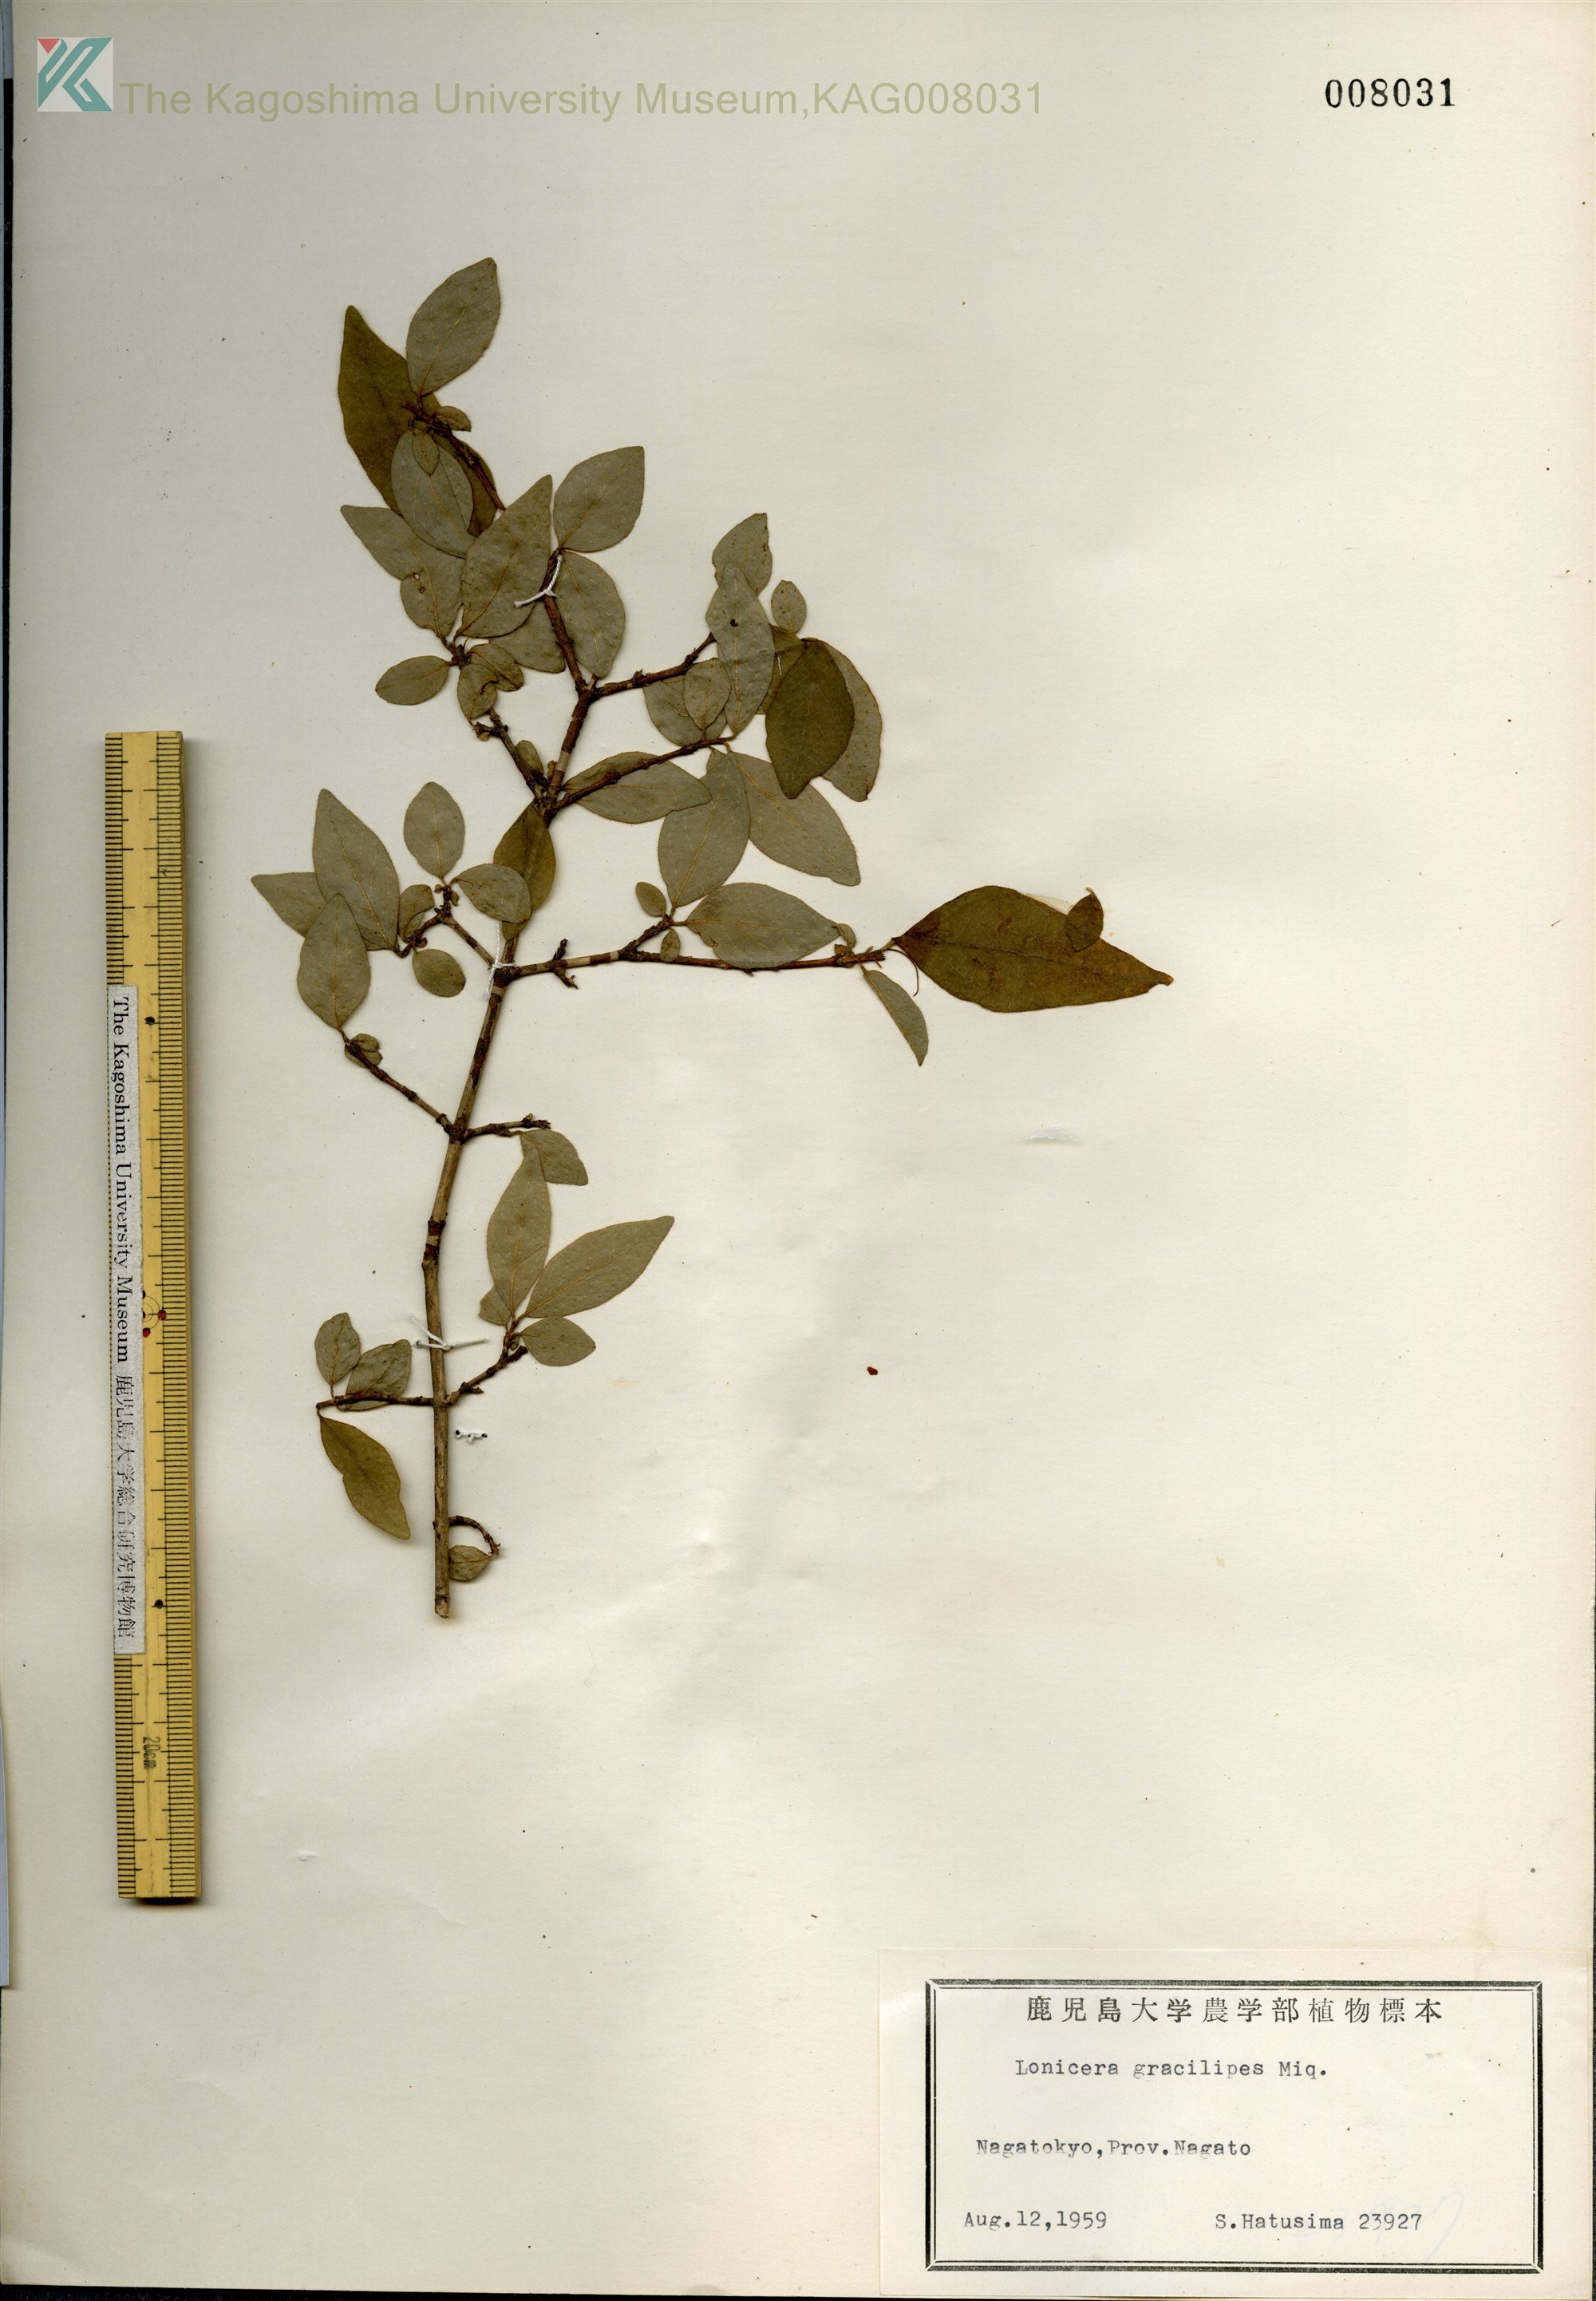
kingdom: Plantae
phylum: Tracheophyta
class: Magnoliopsida
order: Dipsacales
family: Caprifoliaceae
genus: Lonicera
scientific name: Lonicera gracilipes
